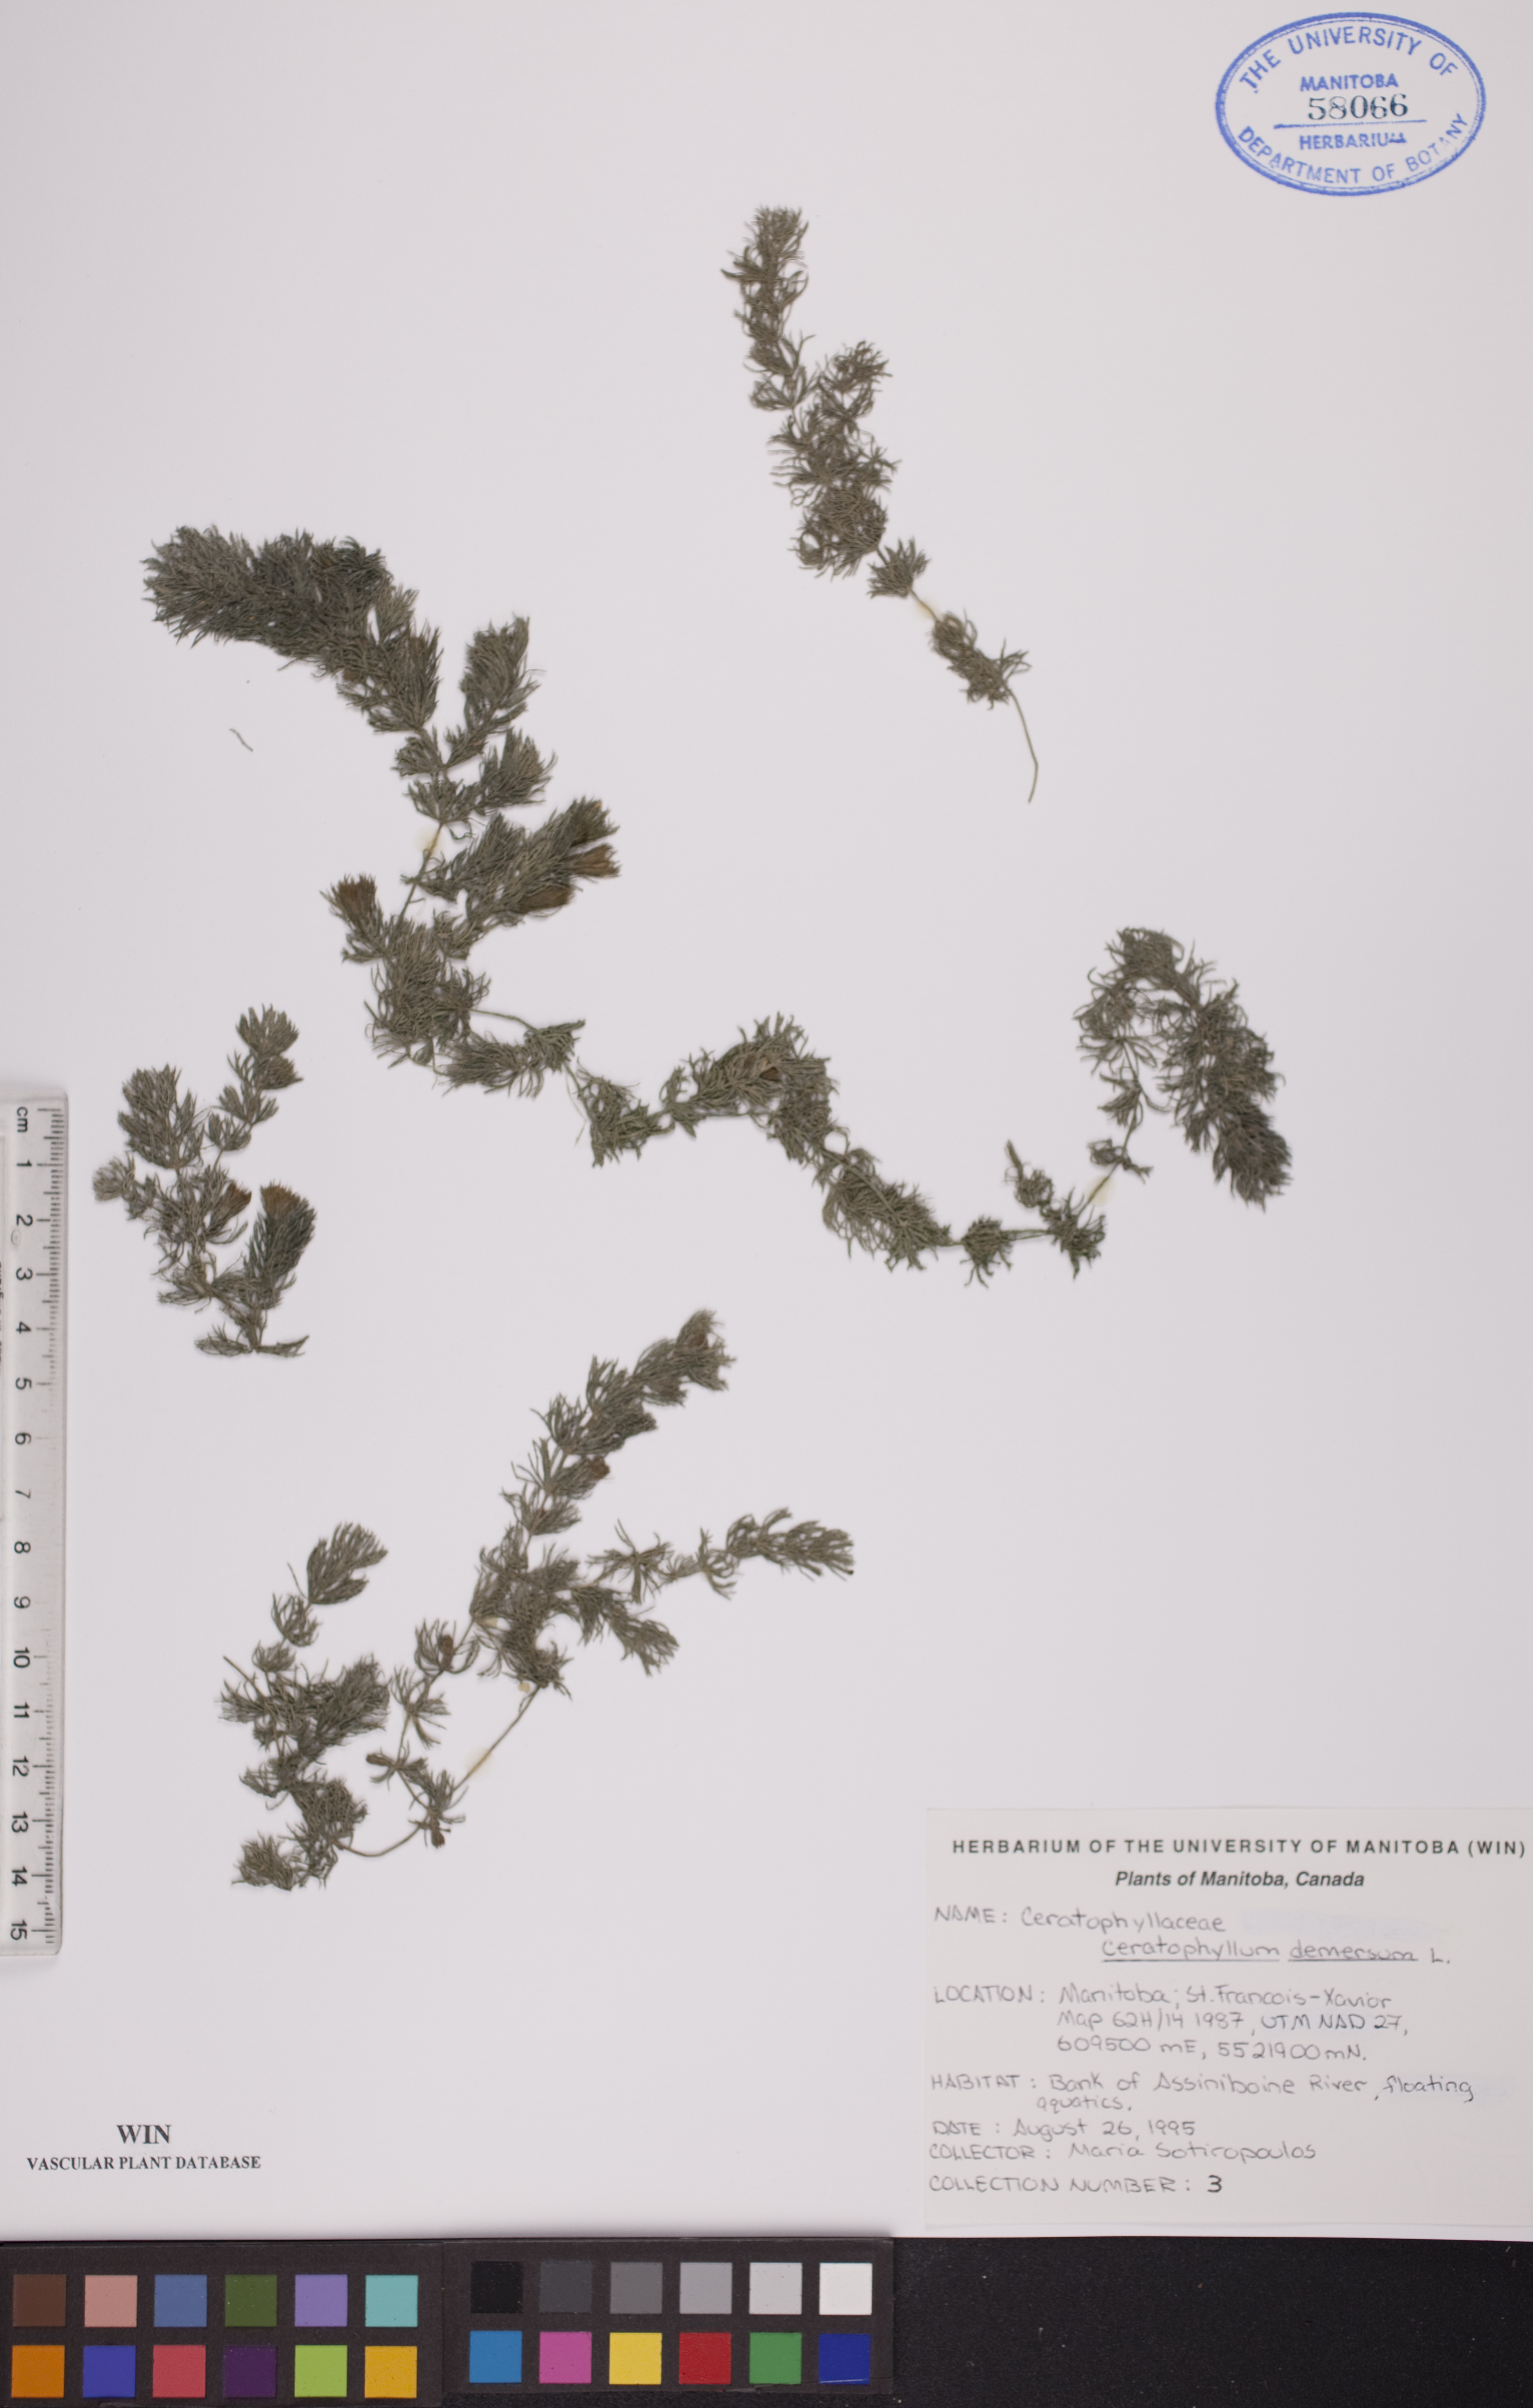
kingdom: Plantae
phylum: Tracheophyta
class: Magnoliopsida
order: Ceratophyllales
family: Ceratophyllaceae
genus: Ceratophyllum
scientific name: Ceratophyllum demersum
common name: Rigid hornwort
